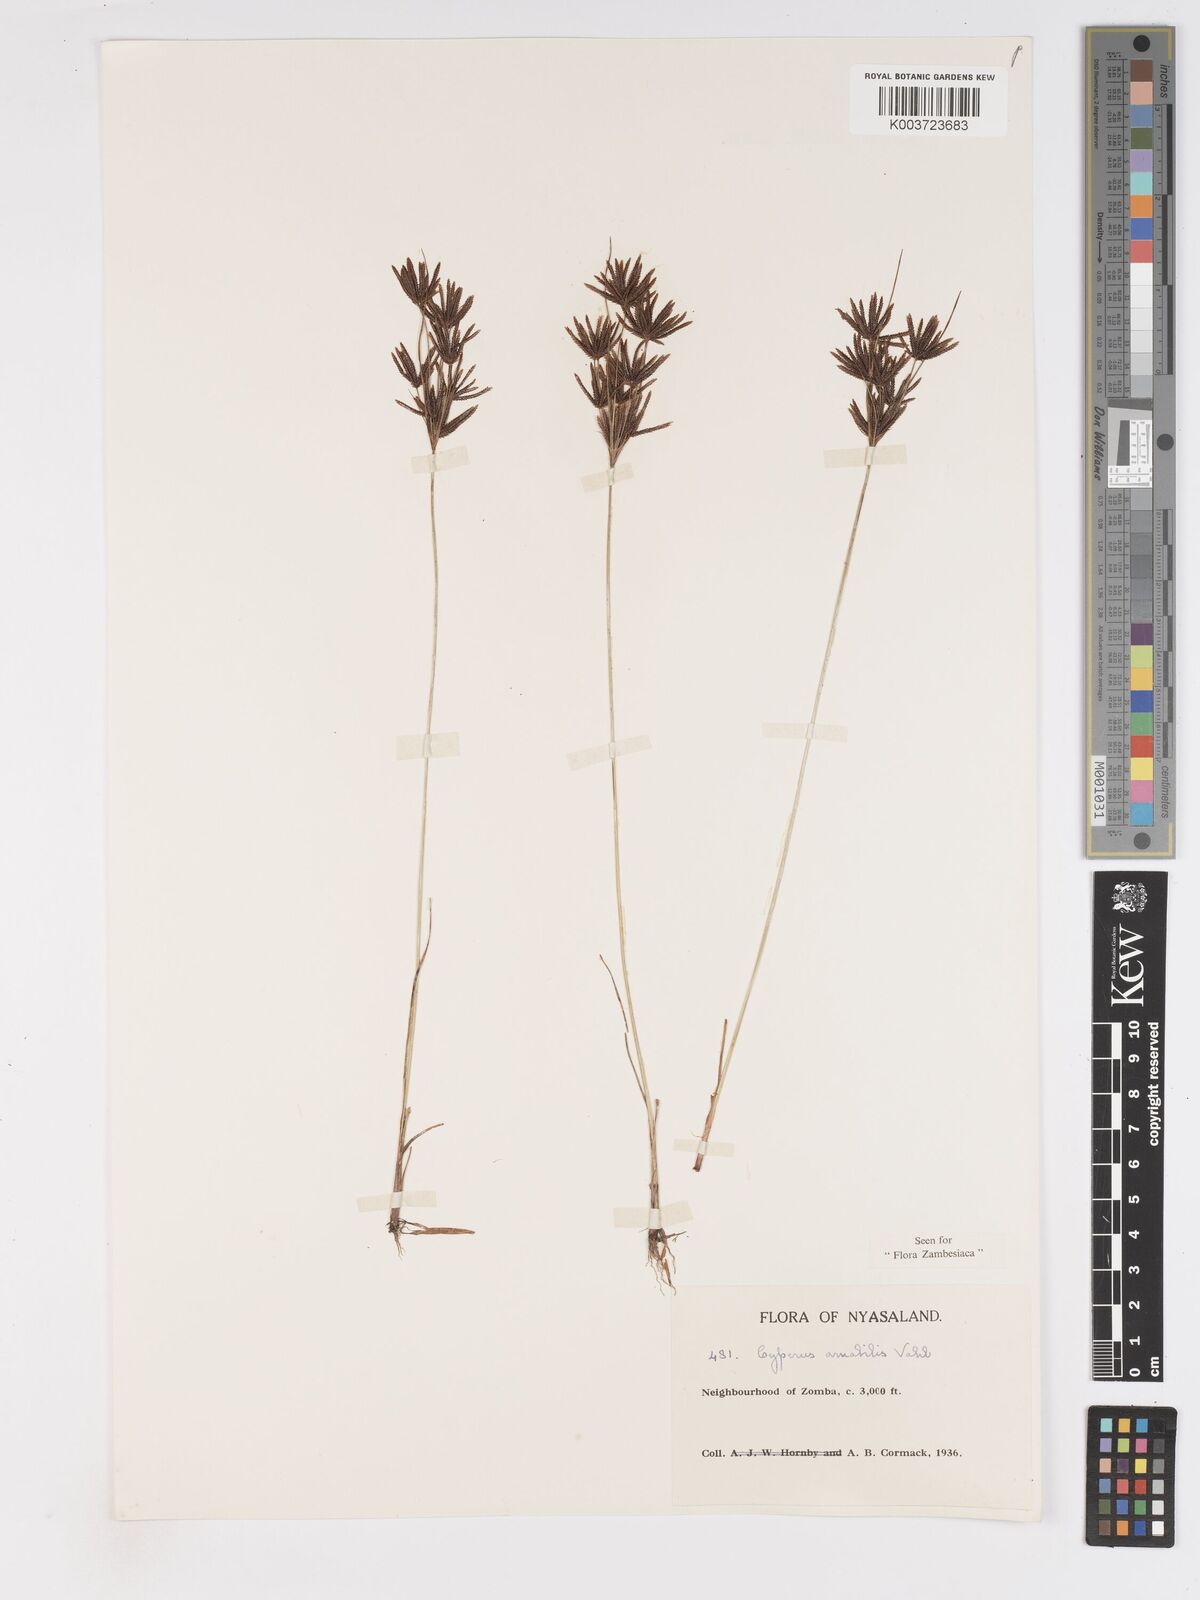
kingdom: Plantae
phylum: Tracheophyta
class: Liliopsida
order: Poales
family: Cyperaceae
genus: Cyperus
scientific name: Cyperus amabilis
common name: Foothill flat sedge
